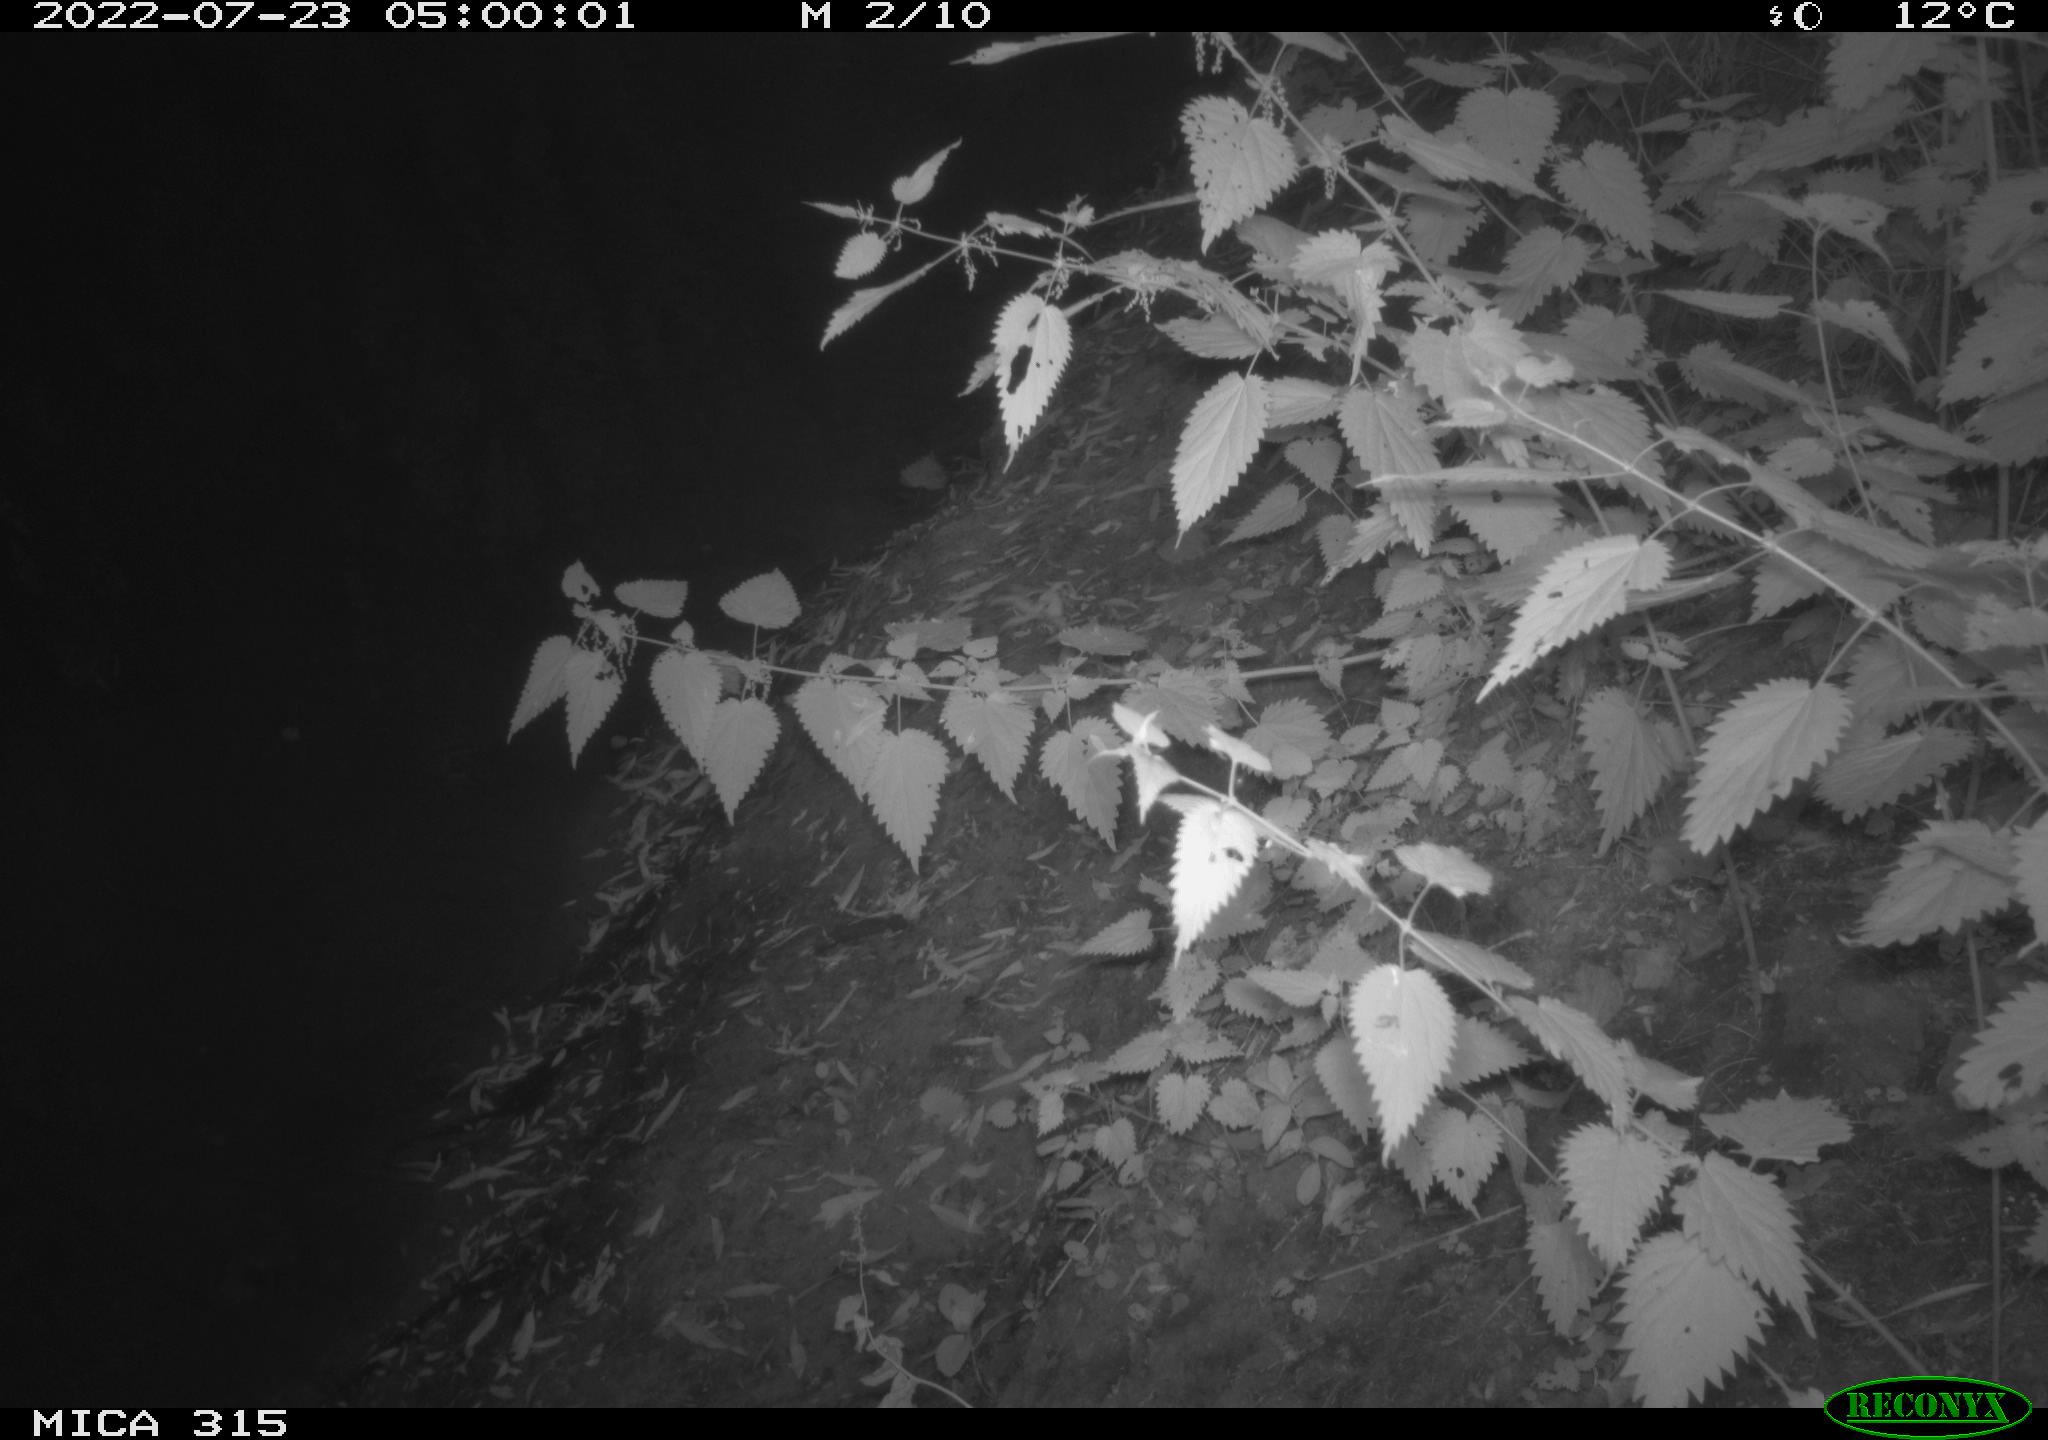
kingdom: Animalia
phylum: Chordata
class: Mammalia
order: Carnivora
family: Mustelidae
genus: Martes
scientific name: Martes
